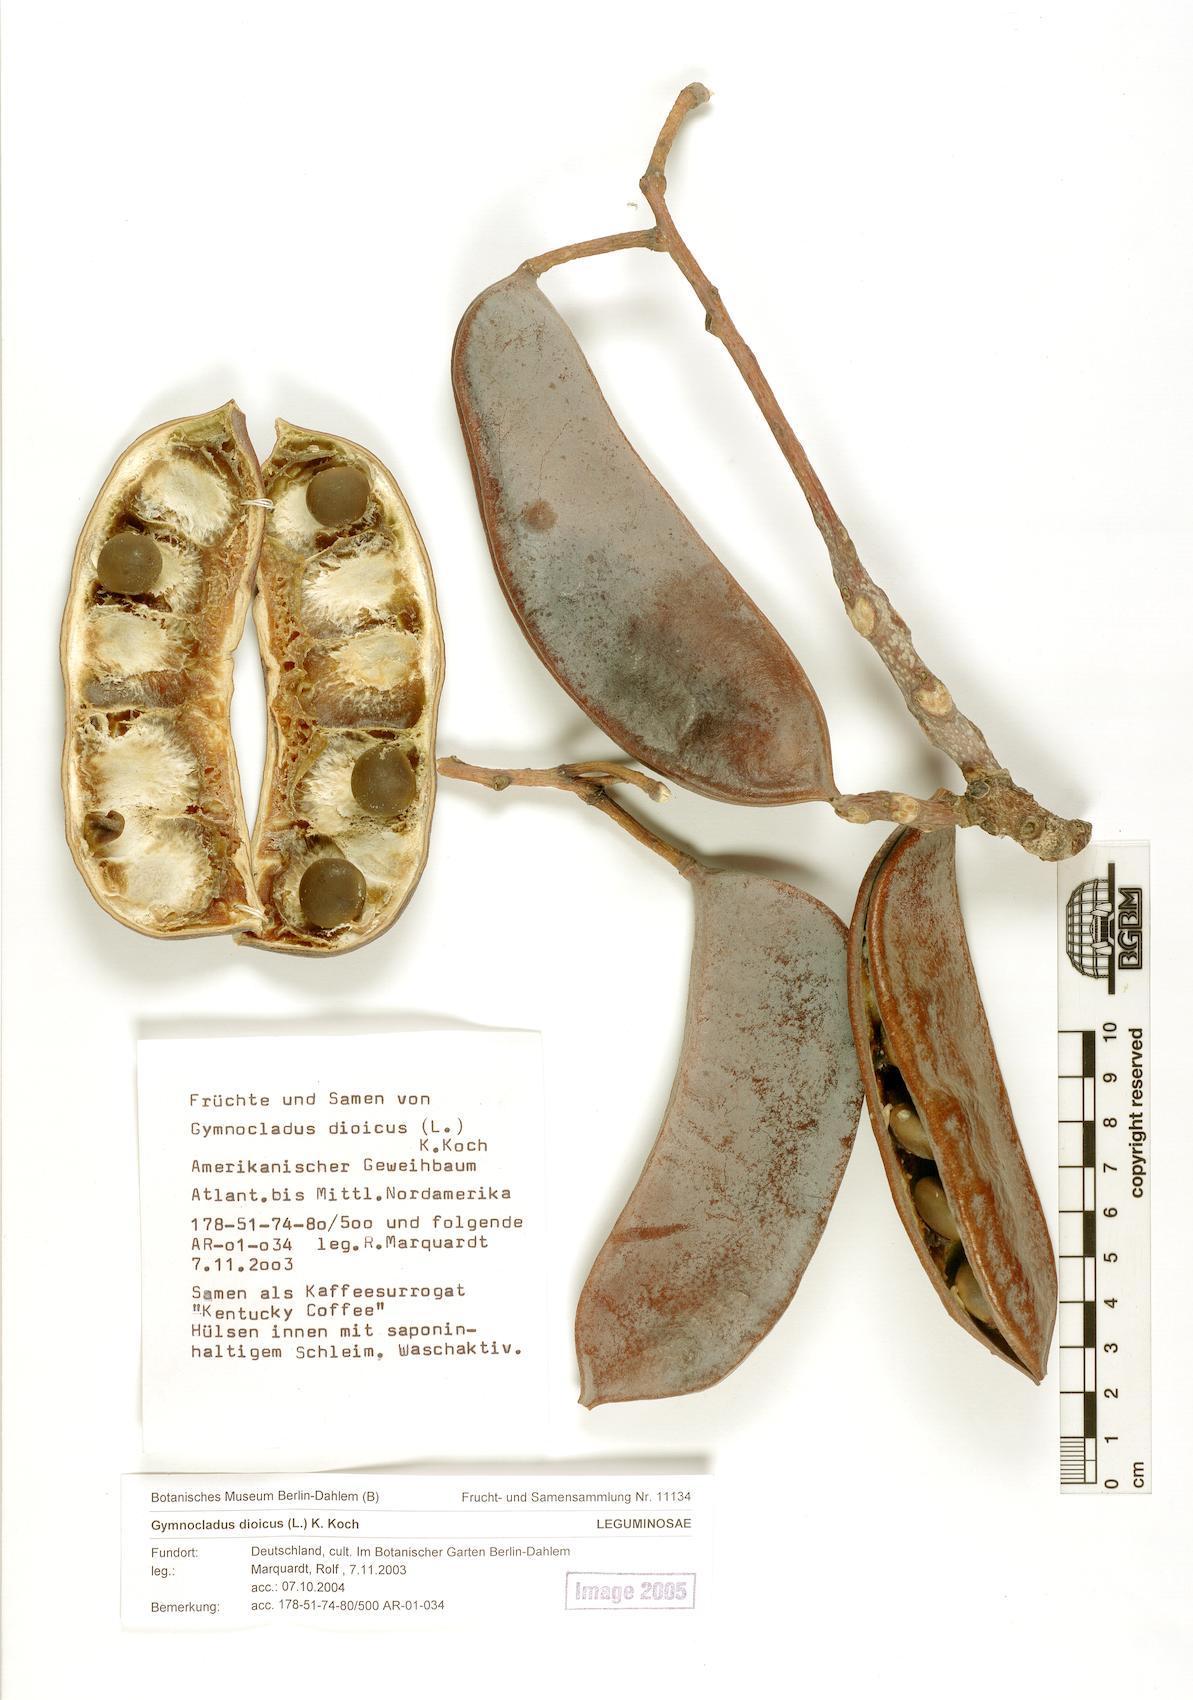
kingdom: Plantae
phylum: Tracheophyta
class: Magnoliopsida
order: Fabales
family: Fabaceae
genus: Gymnocladus
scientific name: Gymnocladus dioicus
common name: Kentucky coffee-tree
